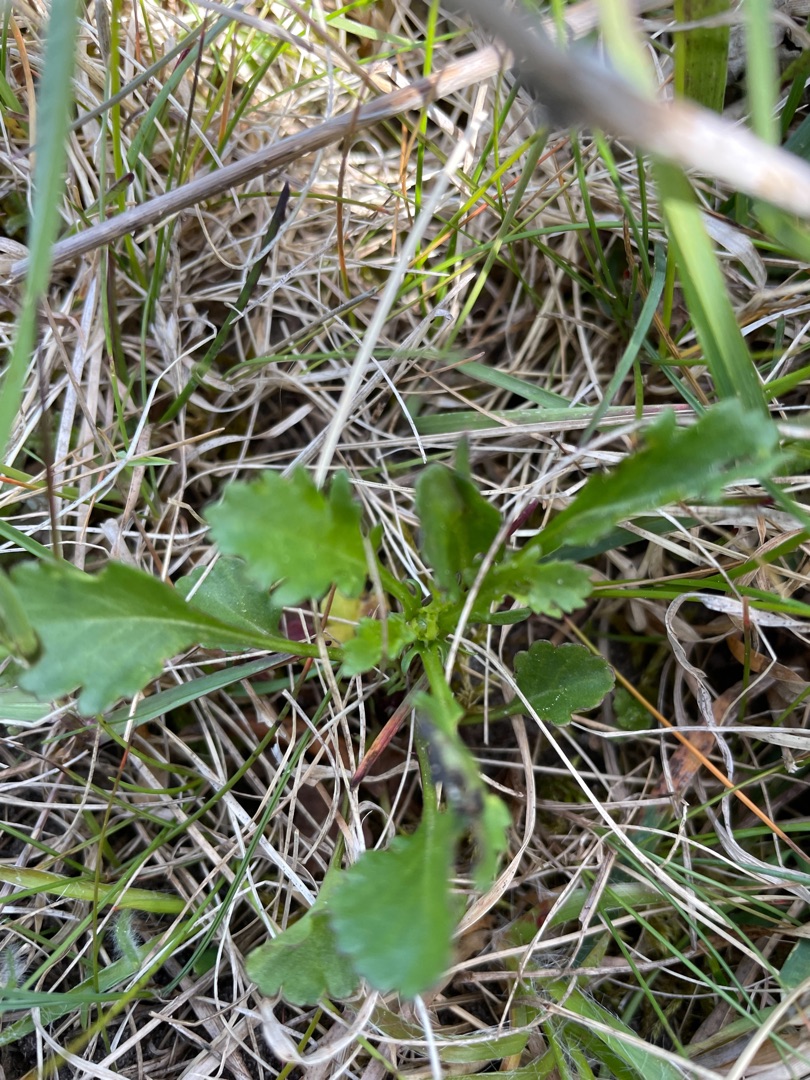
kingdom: Plantae
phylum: Tracheophyta
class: Magnoliopsida
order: Asterales
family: Asteraceae
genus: Leucanthemum
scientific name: Leucanthemum vulgare
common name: Hvid okseøje
